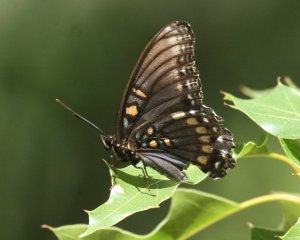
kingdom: Animalia
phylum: Arthropoda
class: Insecta
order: Lepidoptera
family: Nymphalidae
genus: Limenitis
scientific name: Limenitis astyanax
